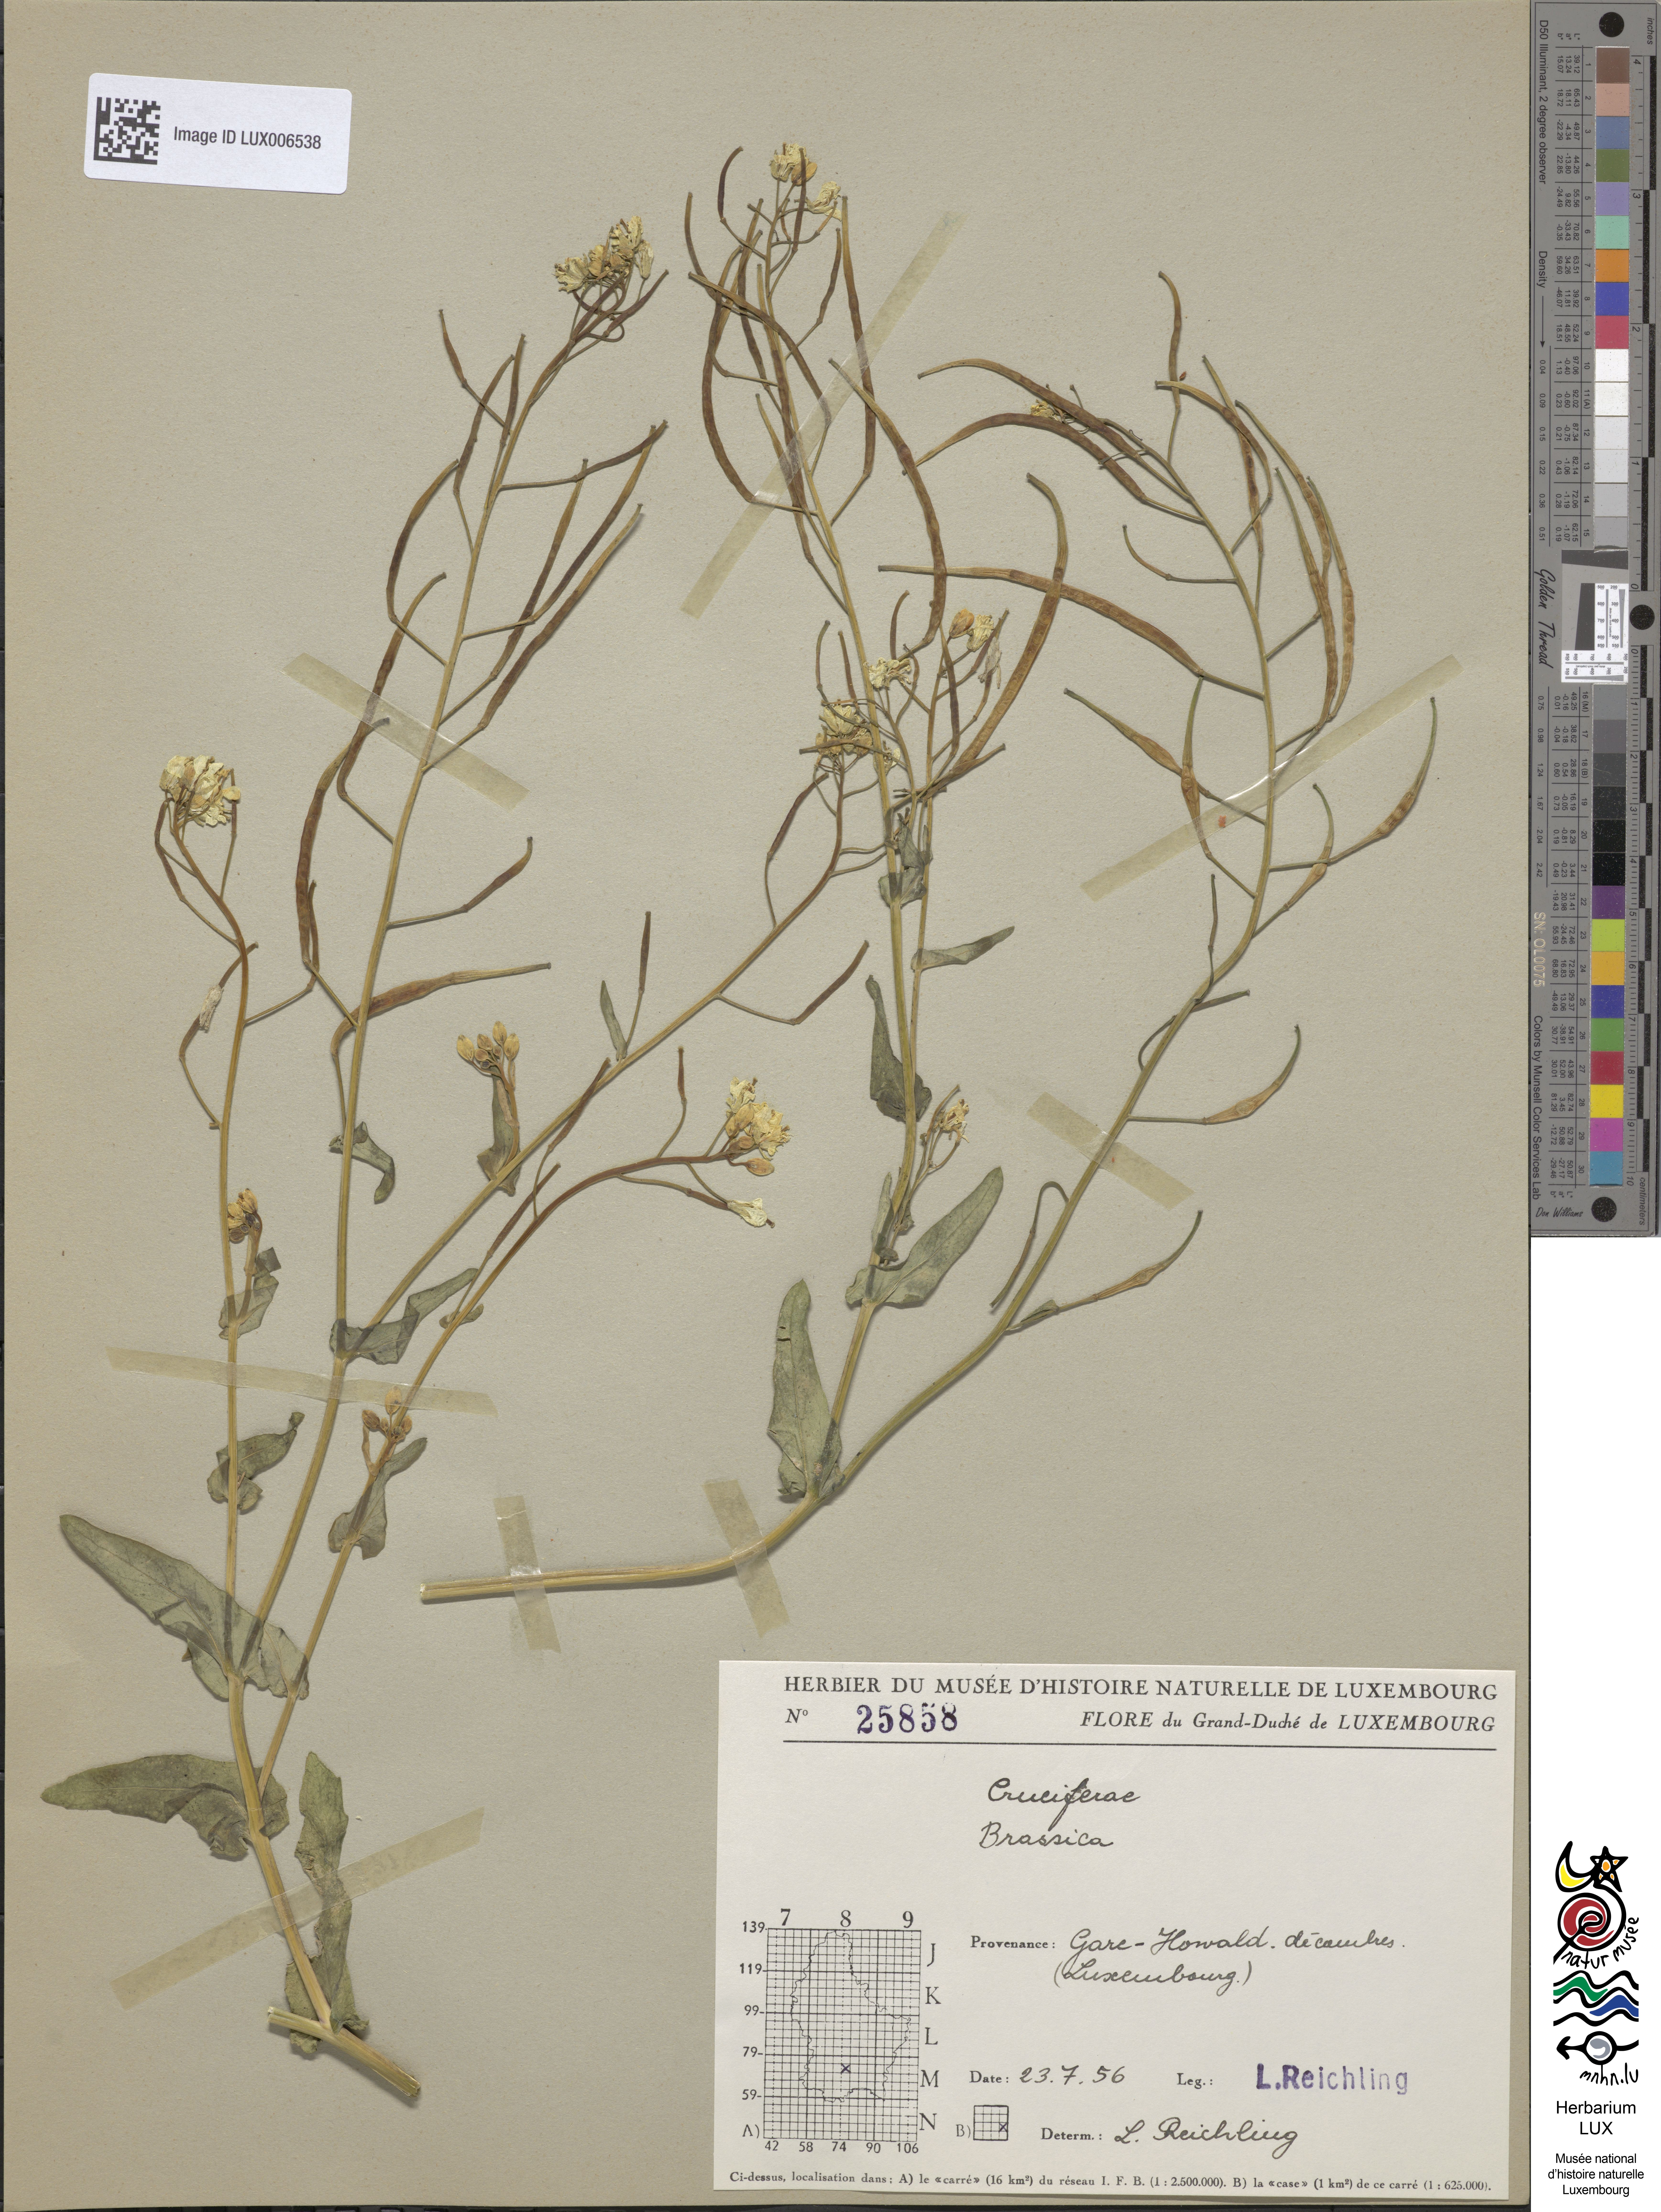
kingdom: Plantae
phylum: Tracheophyta
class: Magnoliopsida
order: Brassicales
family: Brassicaceae
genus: Brassica
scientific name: Brassica
